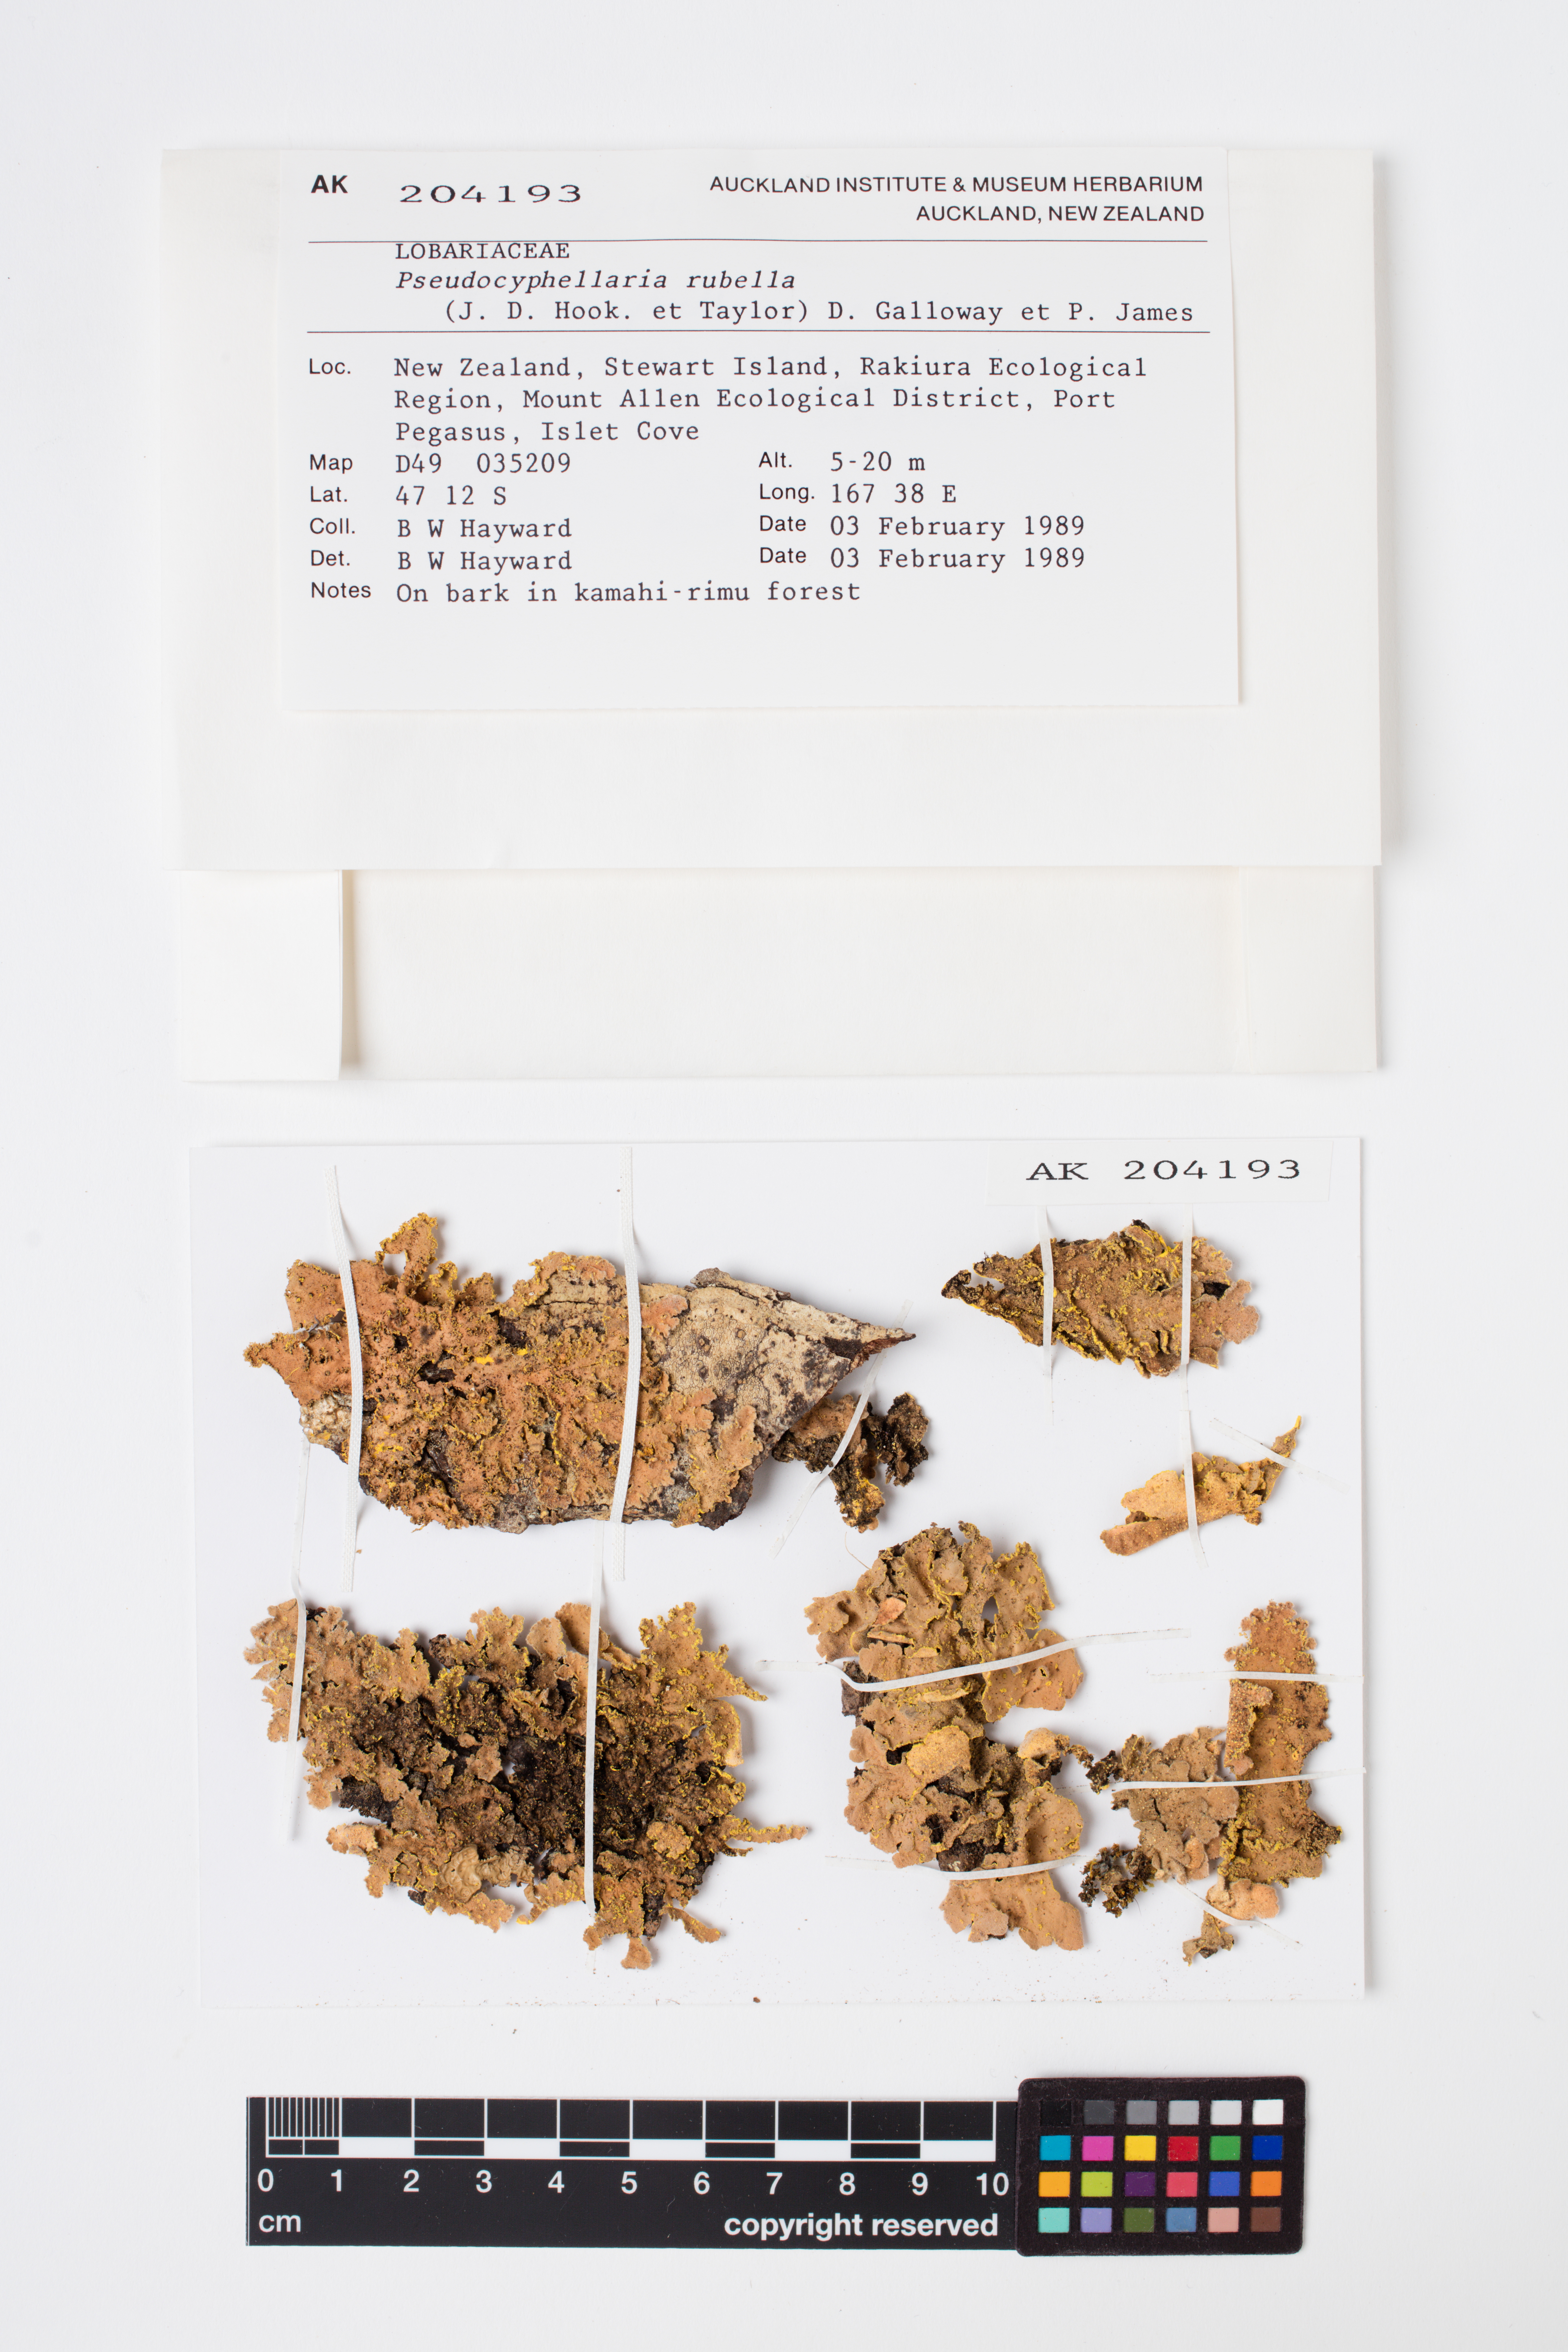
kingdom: Fungi
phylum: Ascomycota
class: Lecanoromycetes
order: Peltigerales
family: Lobariaceae
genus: Pseudocyphellaria
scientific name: Pseudocyphellaria rubella
